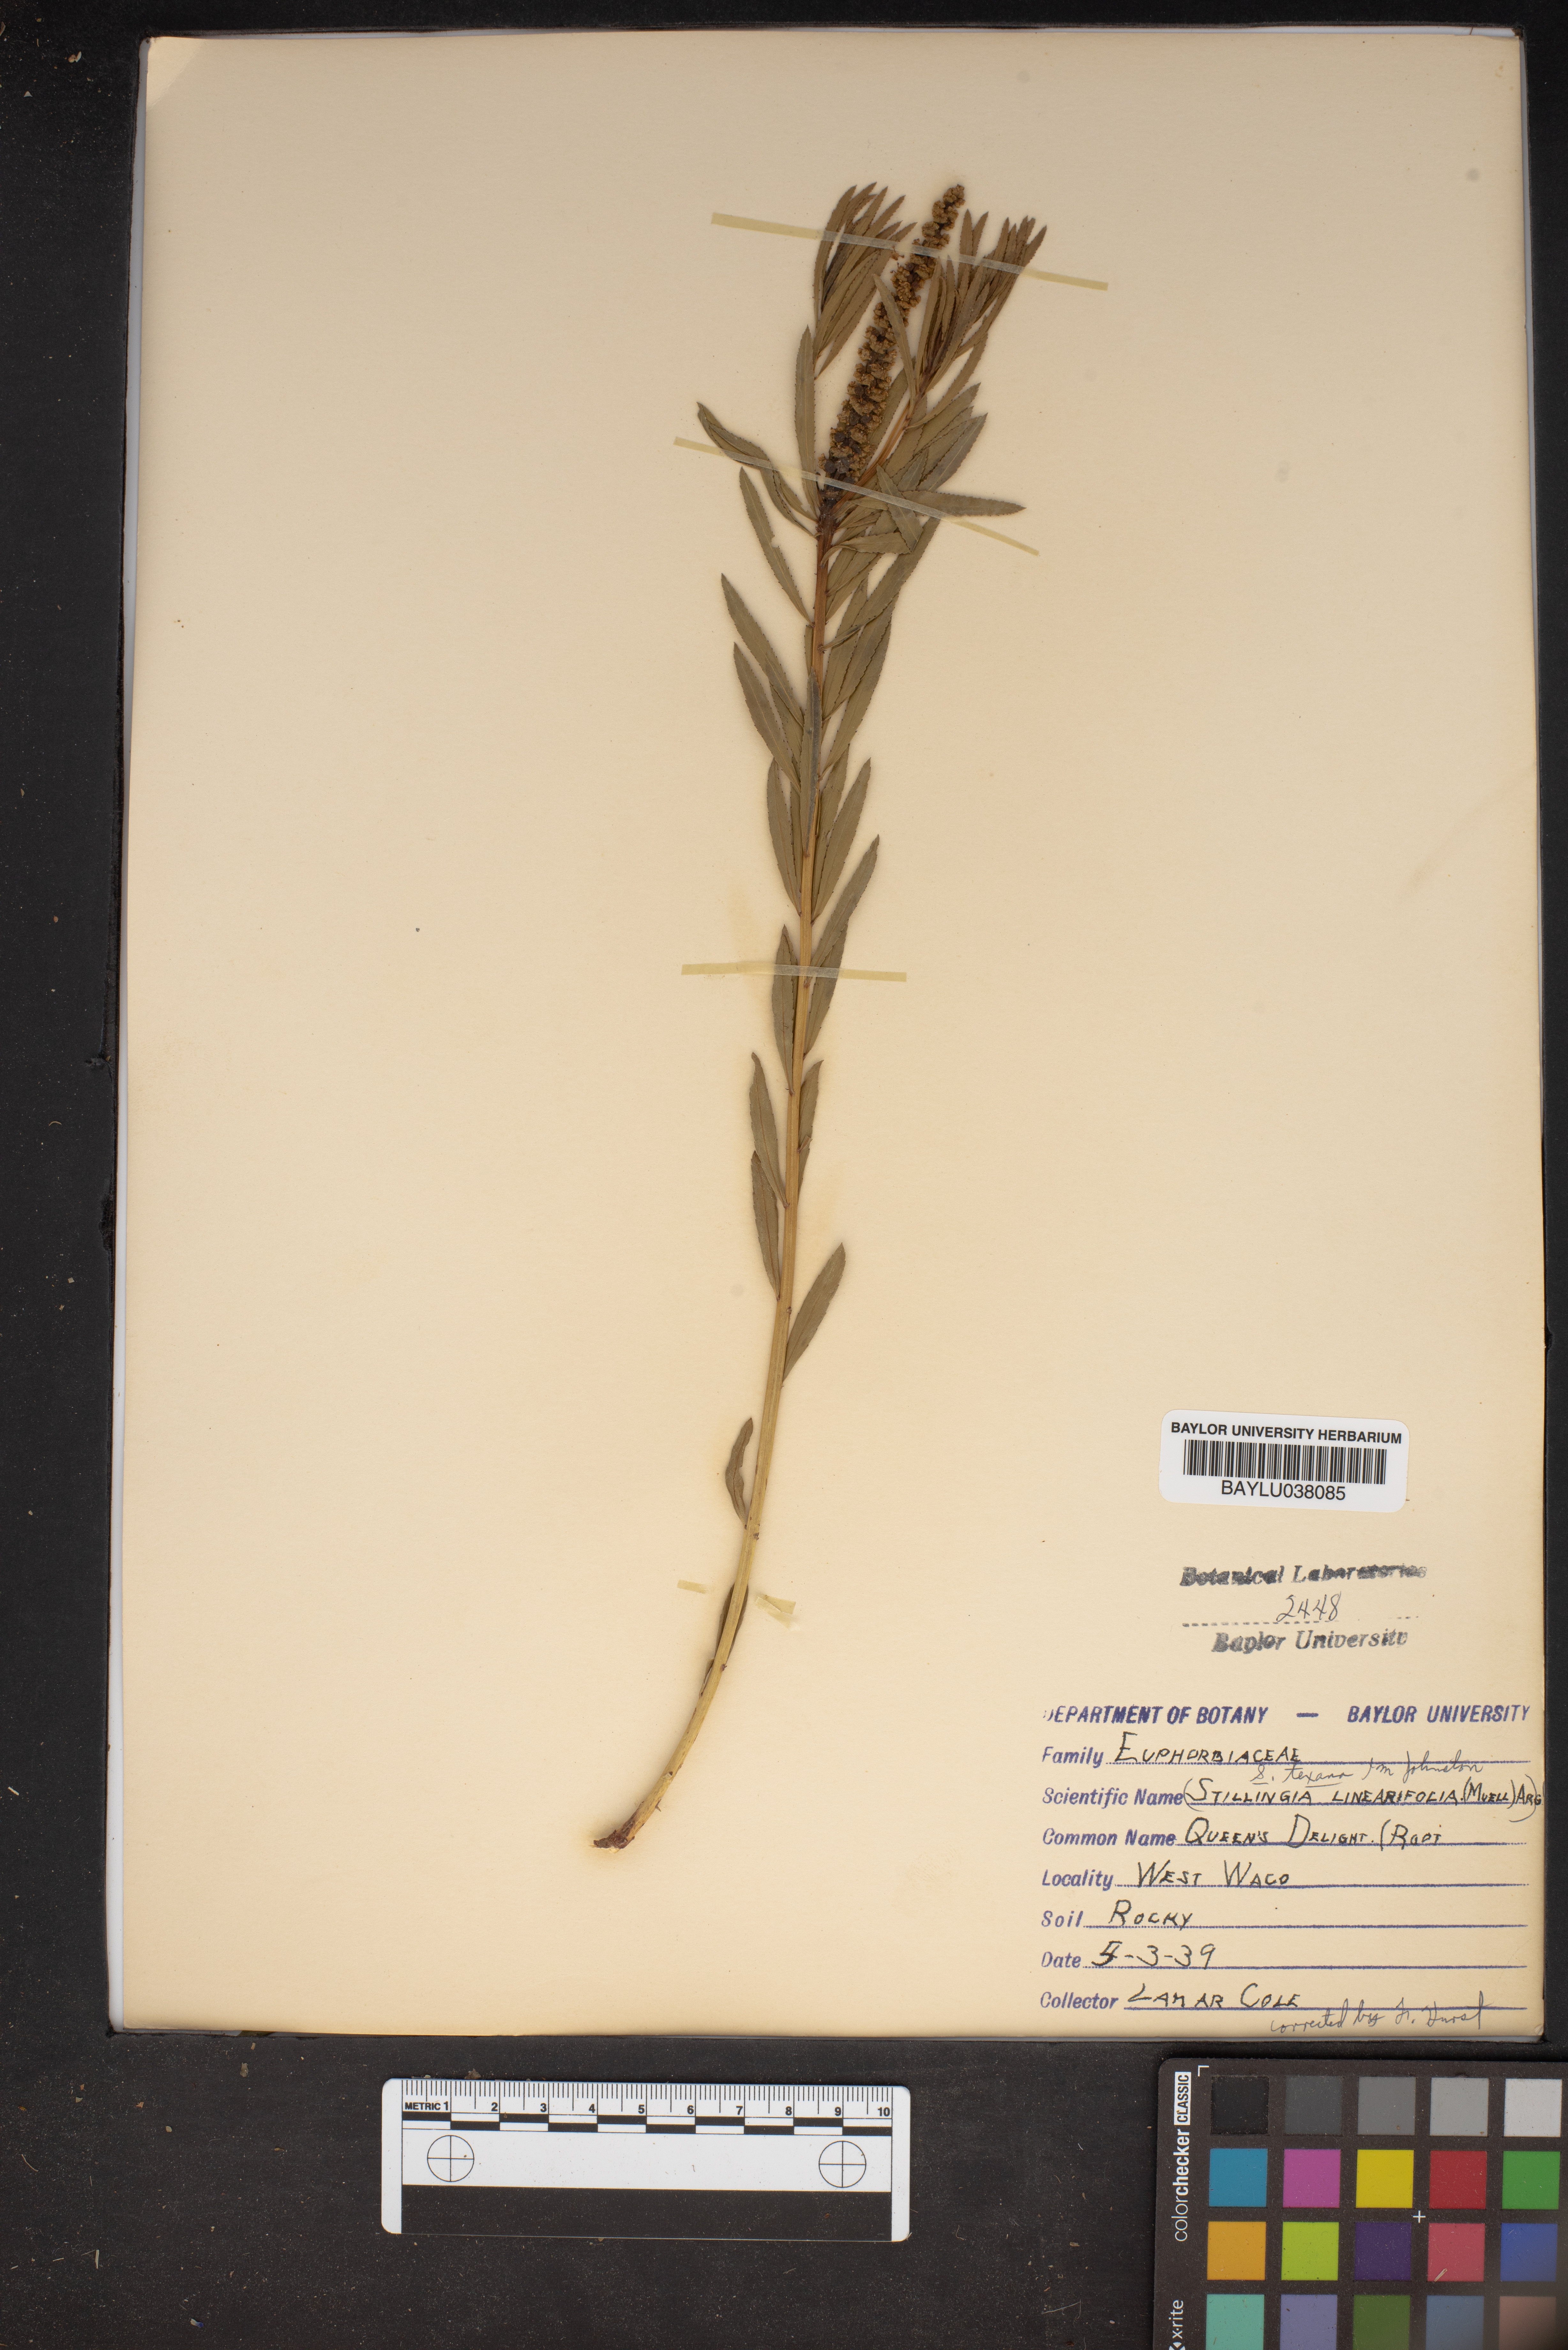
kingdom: Plantae
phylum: Tracheophyta
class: Magnoliopsida
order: Malpighiales
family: Euphorbiaceae
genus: Stillingia
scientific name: Stillingia linearifolia
